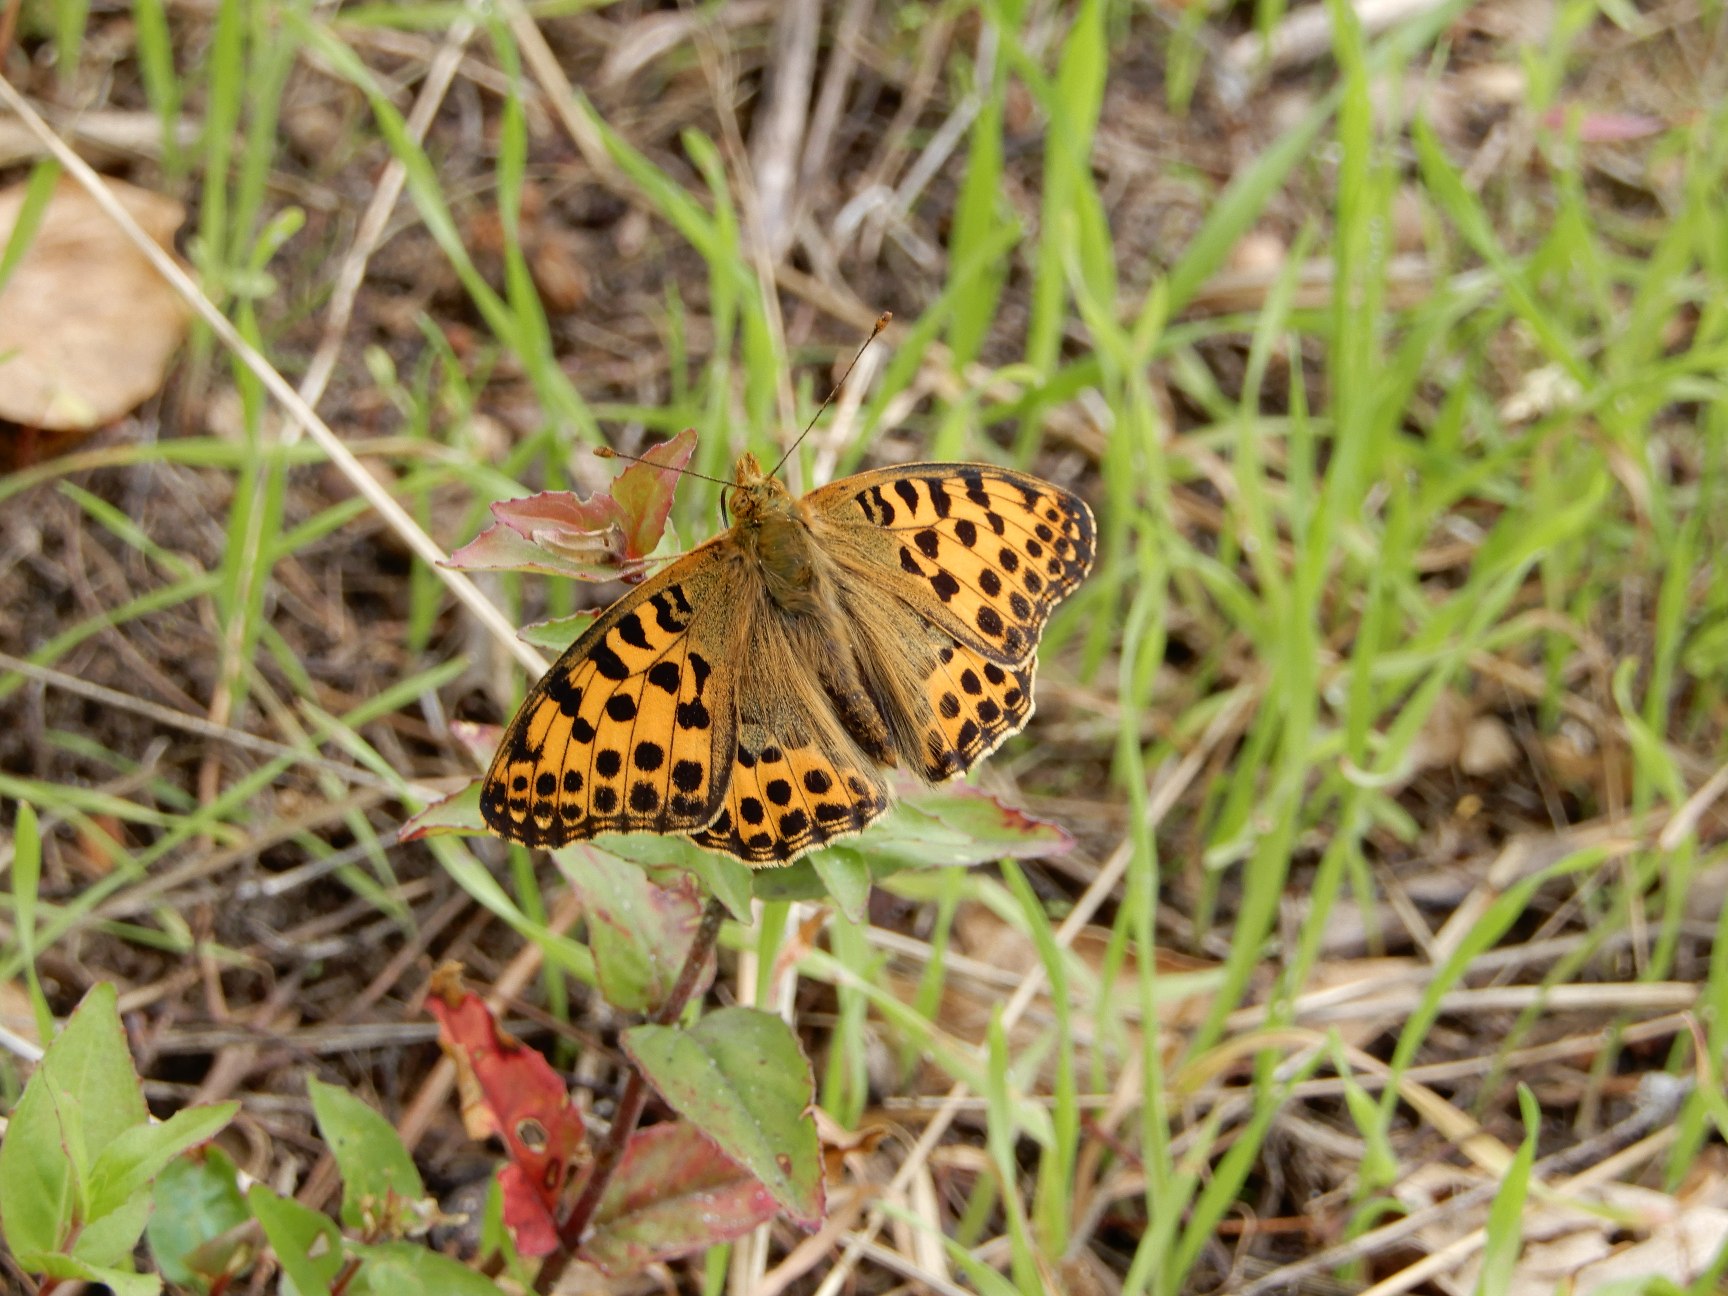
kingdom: Animalia
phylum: Arthropoda
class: Insecta
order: Lepidoptera
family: Nymphalidae
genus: Issoria
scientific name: Issoria lathonia
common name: Storplettet perlemorsommerfugl
